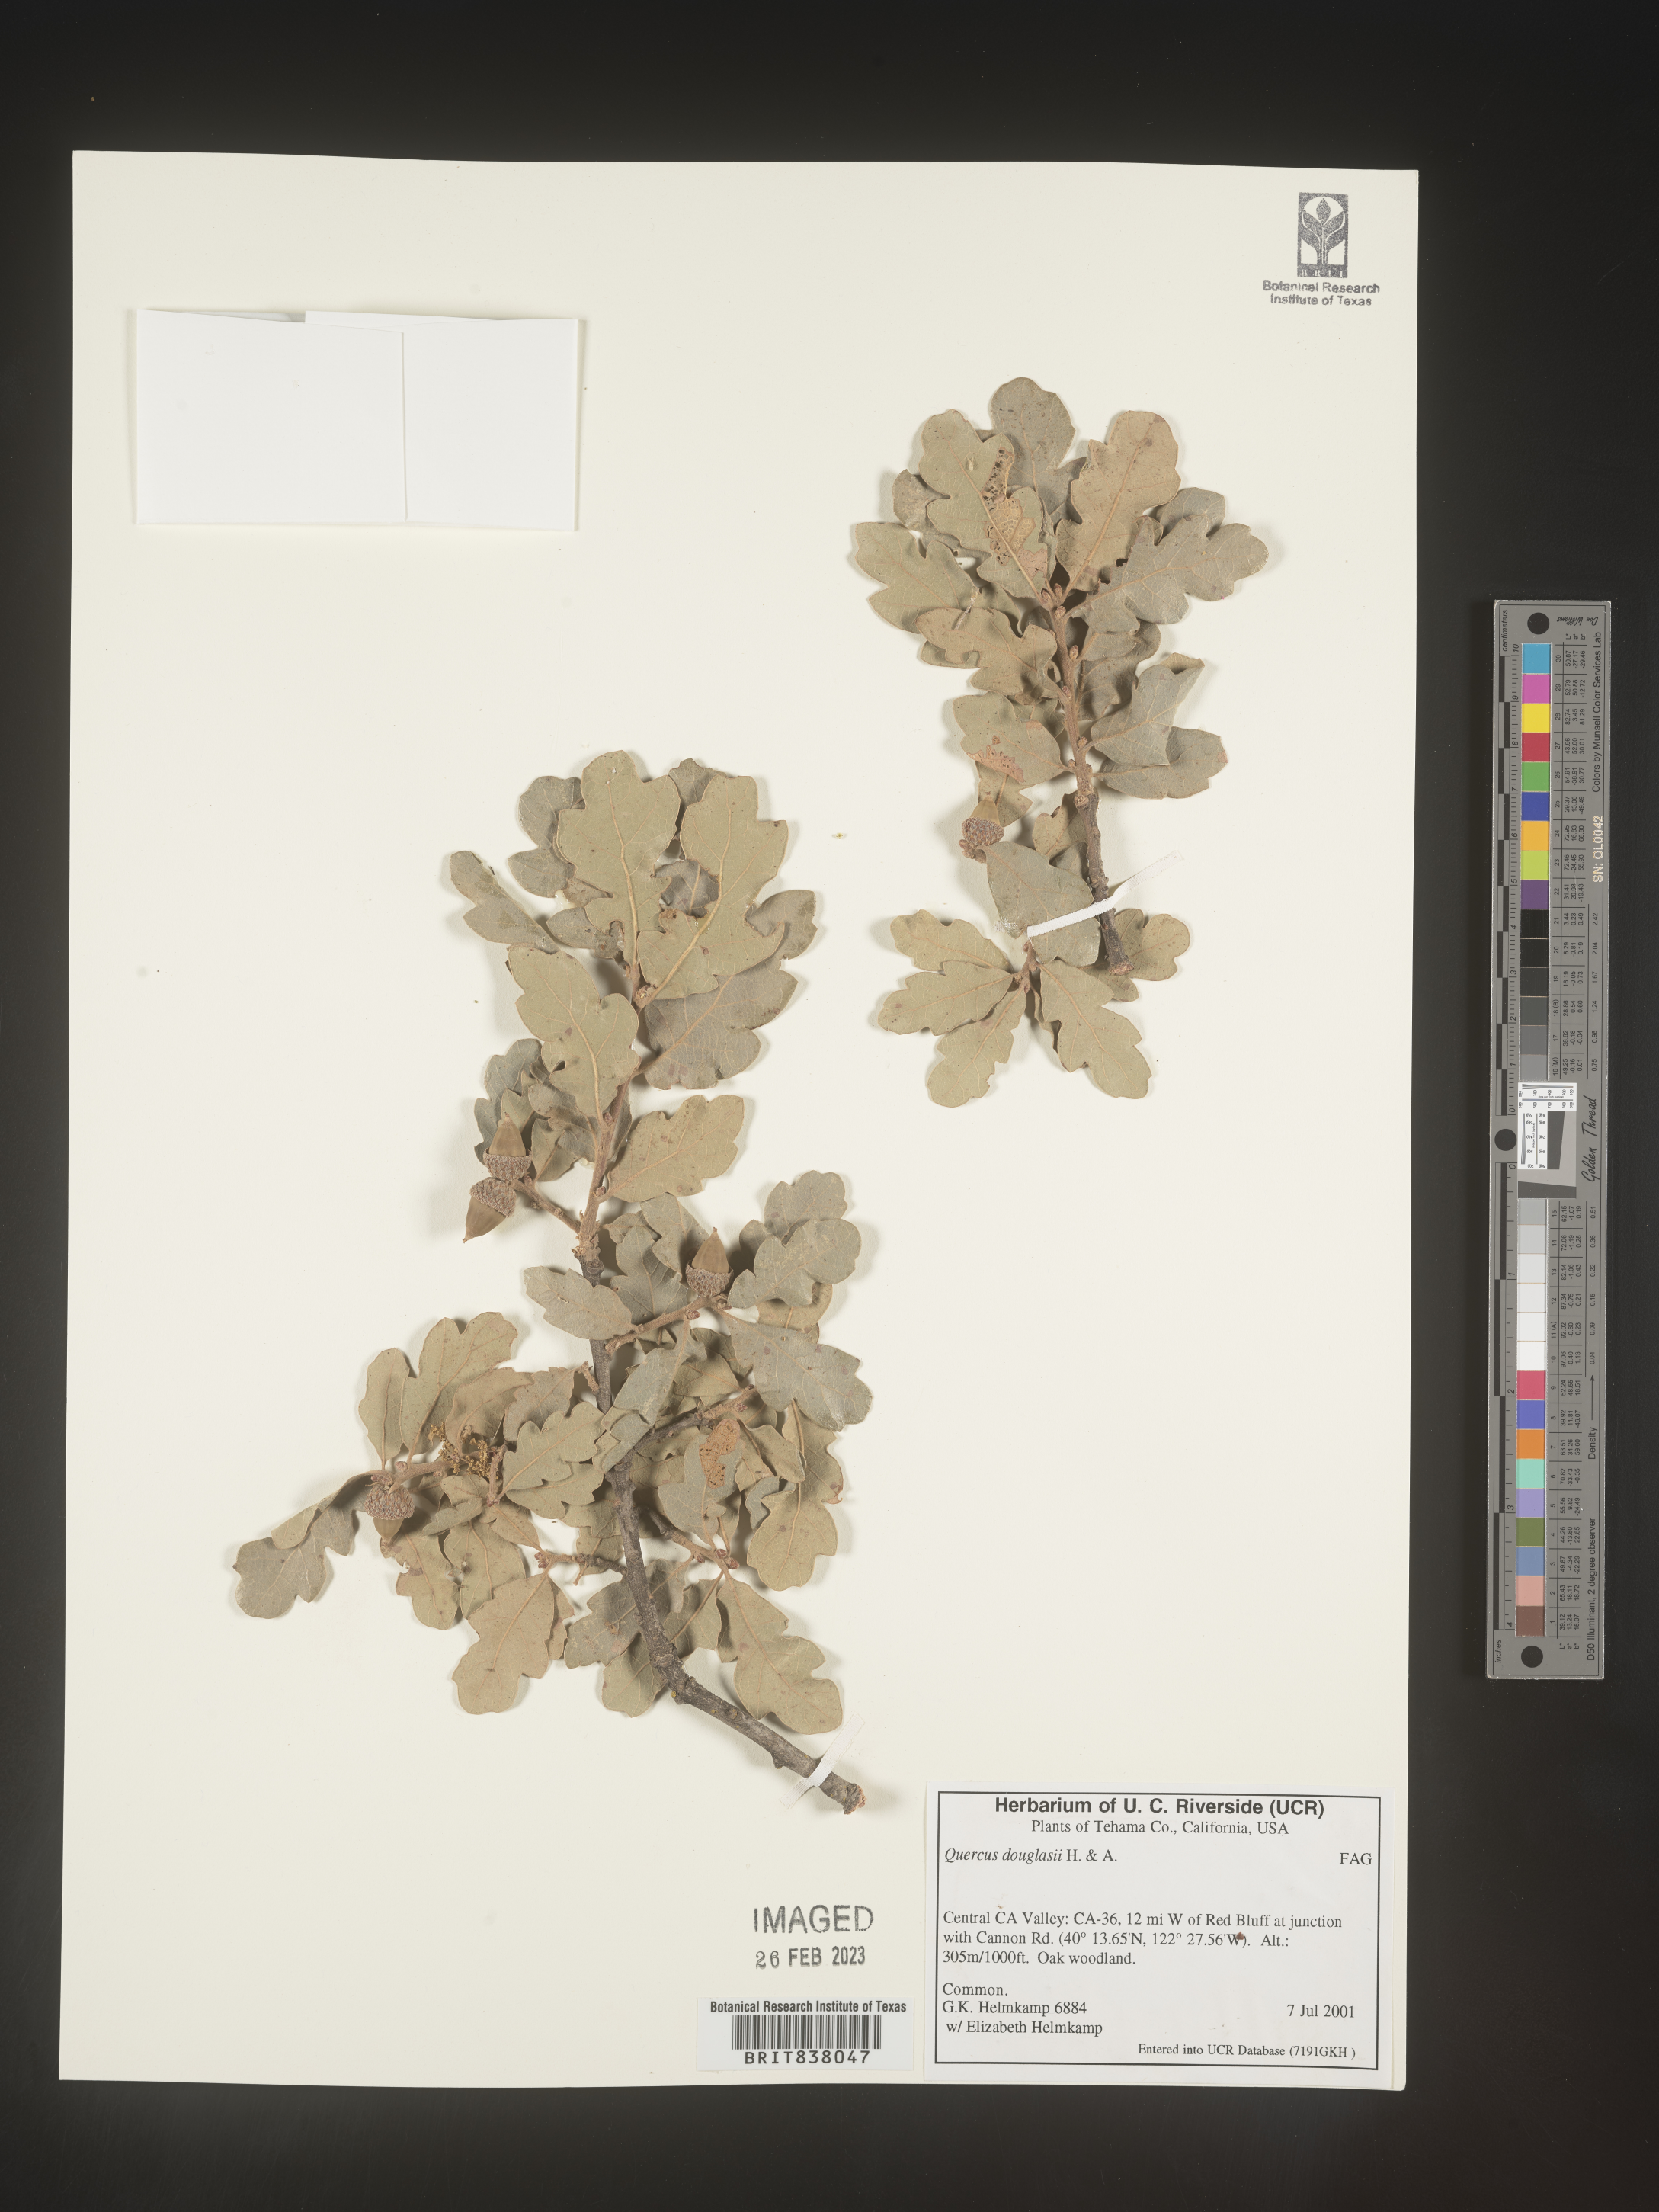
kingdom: Plantae
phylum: Tracheophyta
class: Magnoliopsida
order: Fagales
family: Fagaceae
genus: Quercus
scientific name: Quercus
